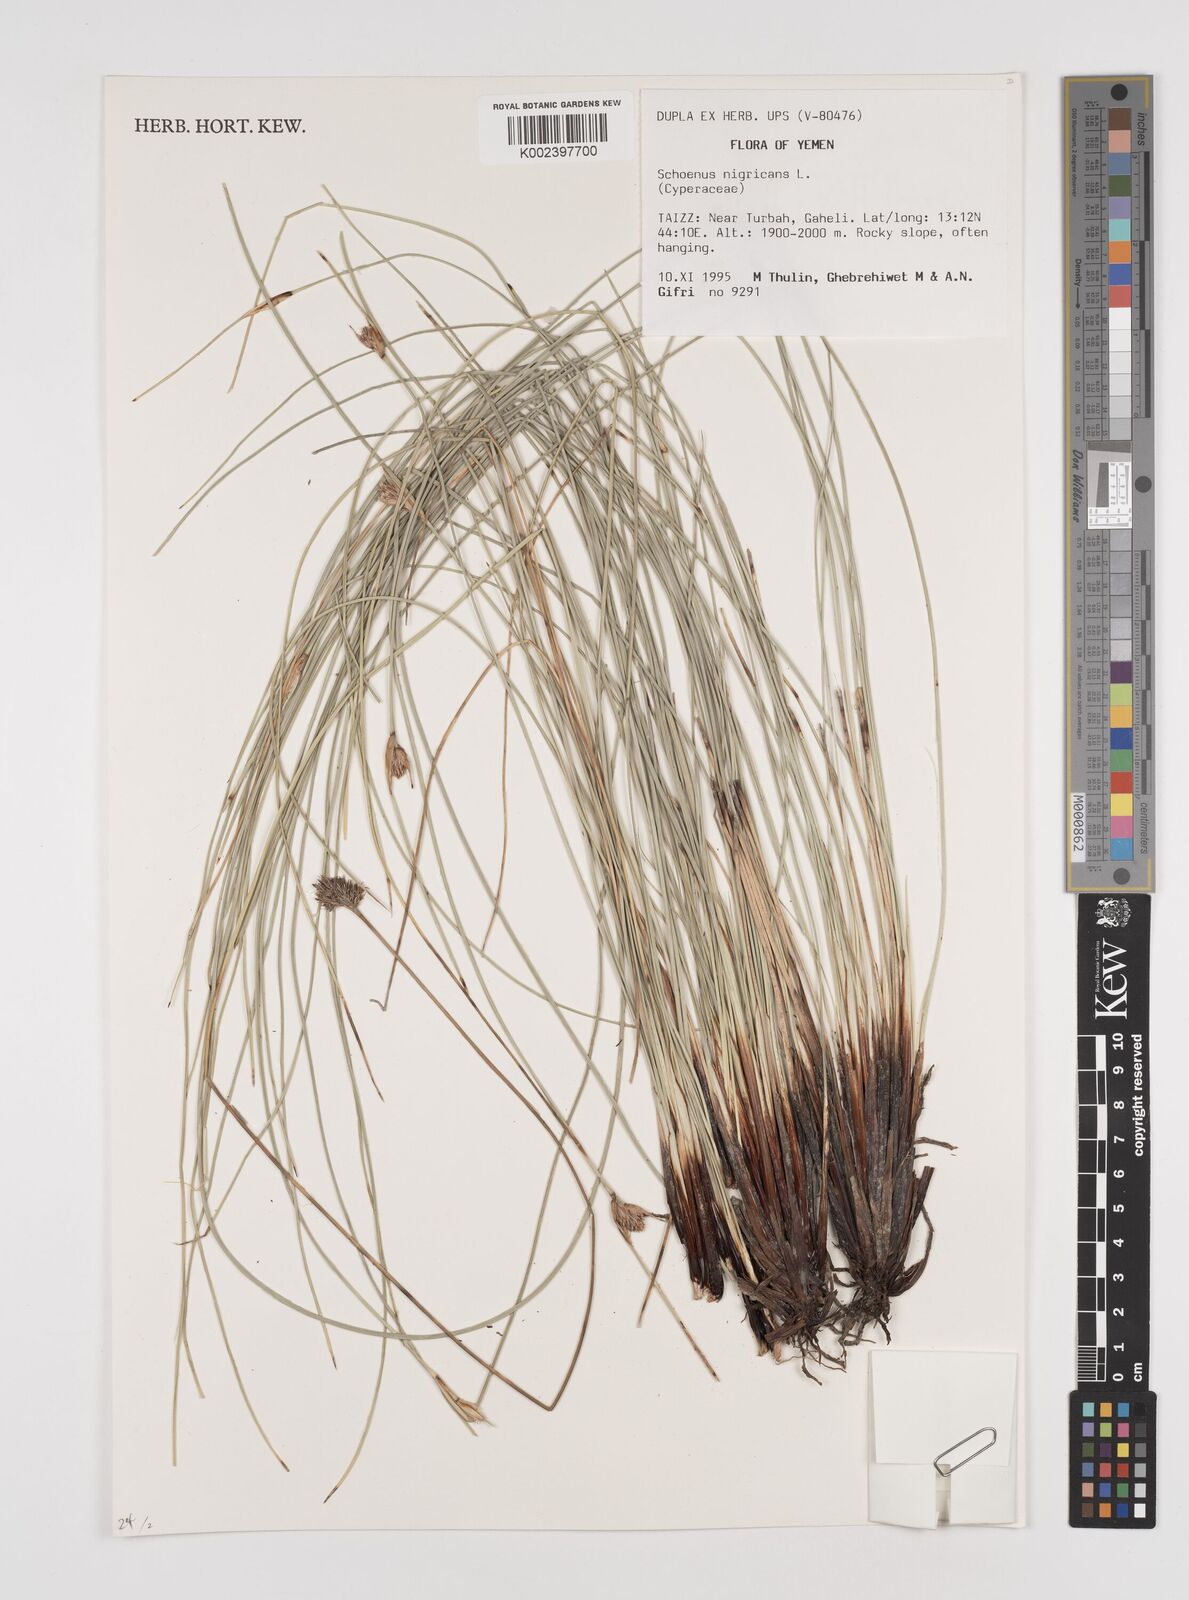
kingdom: Plantae
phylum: Tracheophyta
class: Liliopsida
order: Poales
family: Cyperaceae
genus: Schoenus
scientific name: Schoenus nigricans
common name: Black bog-rush
